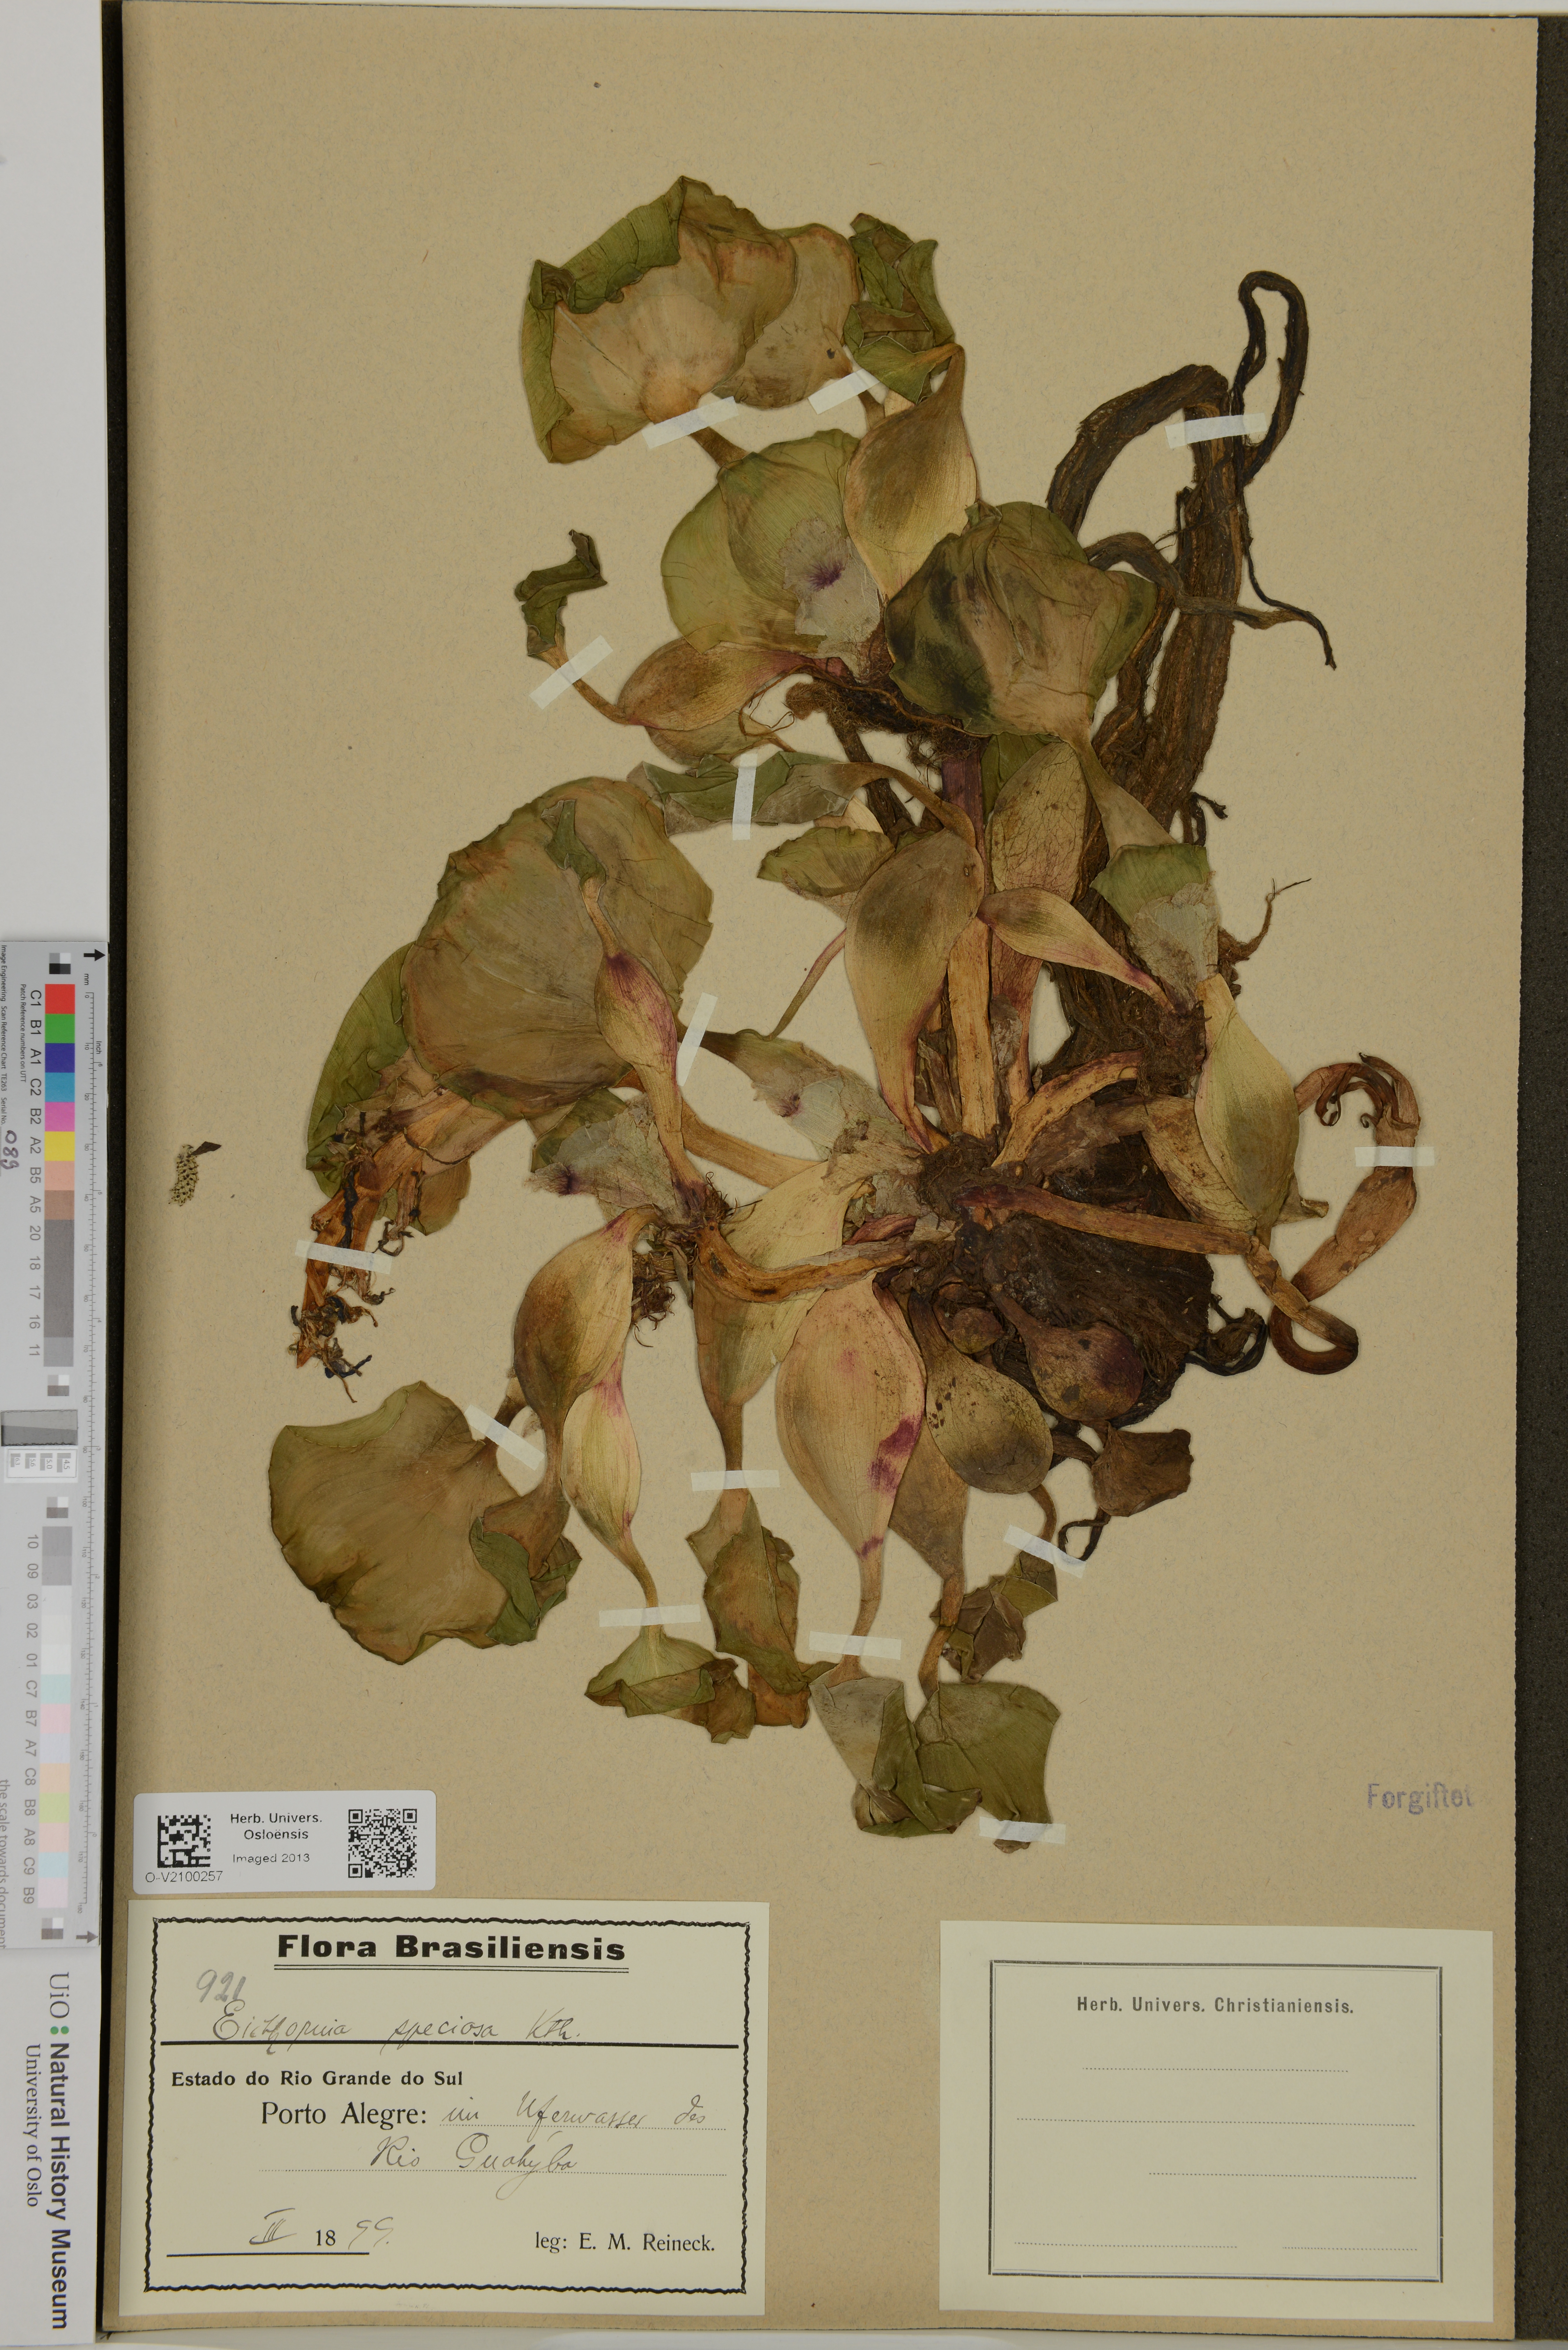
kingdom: Plantae
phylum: Tracheophyta
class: Liliopsida
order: Commelinales
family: Pontederiaceae
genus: Pontederia
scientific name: Pontederia crassipes
